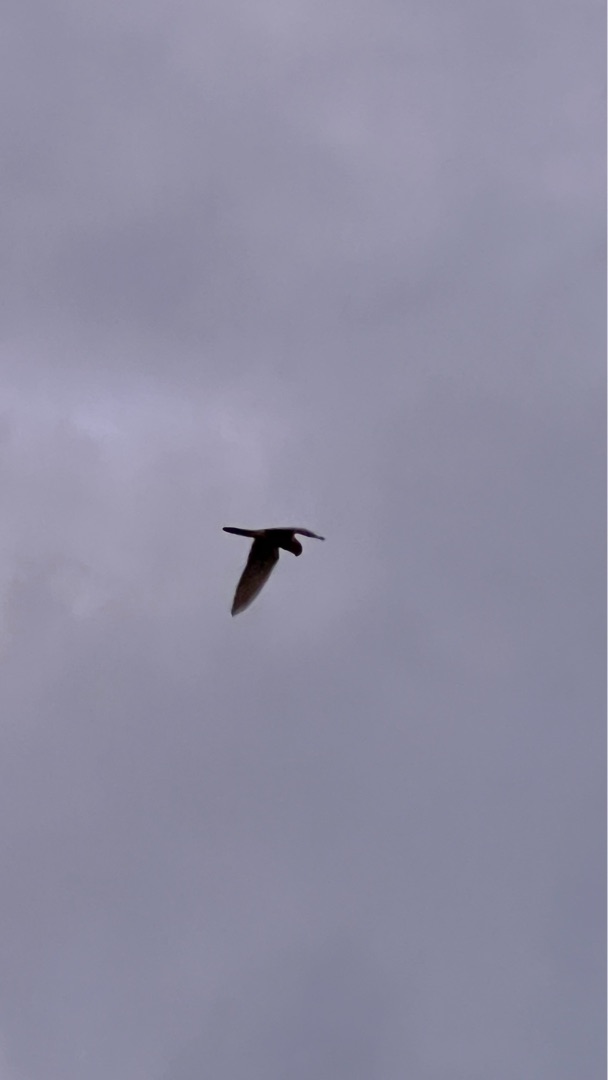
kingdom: Animalia
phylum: Chordata
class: Aves
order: Falconiformes
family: Falconidae
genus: Falco
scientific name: Falco tinnunculus
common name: Tårnfalk
